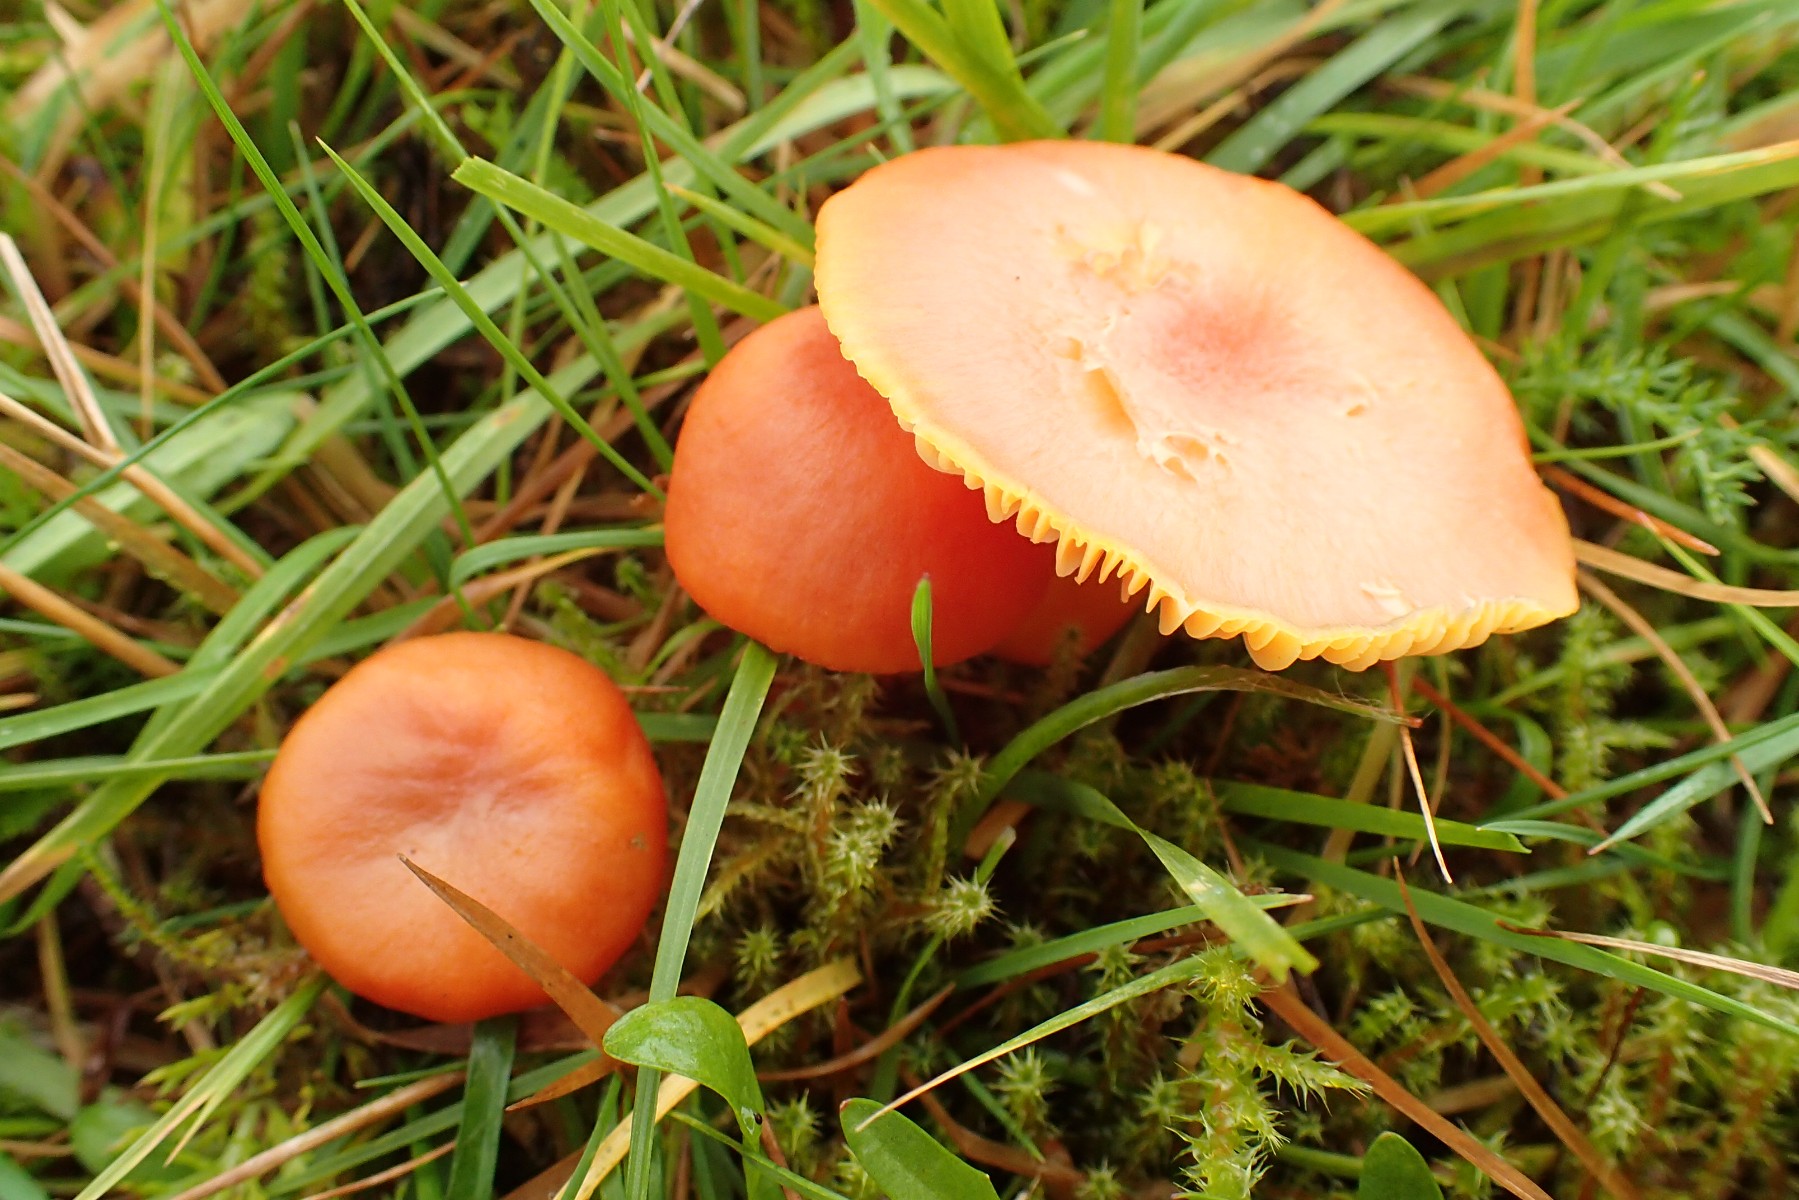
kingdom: Fungi
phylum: Basidiomycota
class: Agaricomycetes
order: Agaricales
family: Hygrophoraceae
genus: Hygrocybe
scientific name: Hygrocybe reidii
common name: honning-vokshat
